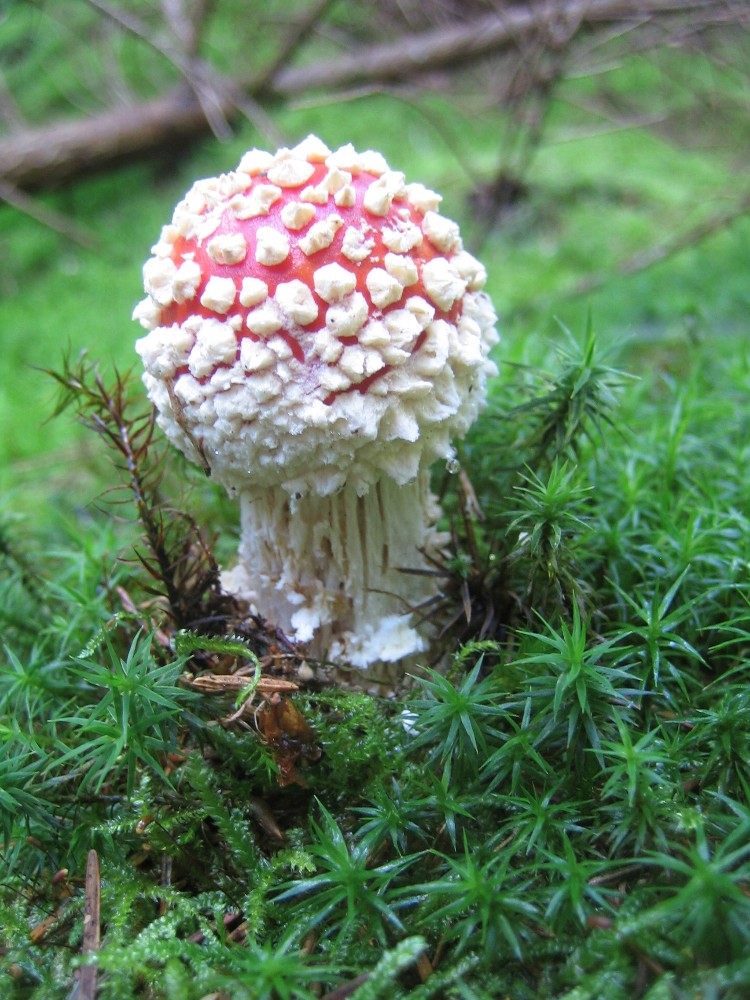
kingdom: Fungi
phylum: Basidiomycota
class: Agaricomycetes
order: Agaricales
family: Amanitaceae
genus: Amanita
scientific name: Amanita muscaria
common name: rød fluesvamp
